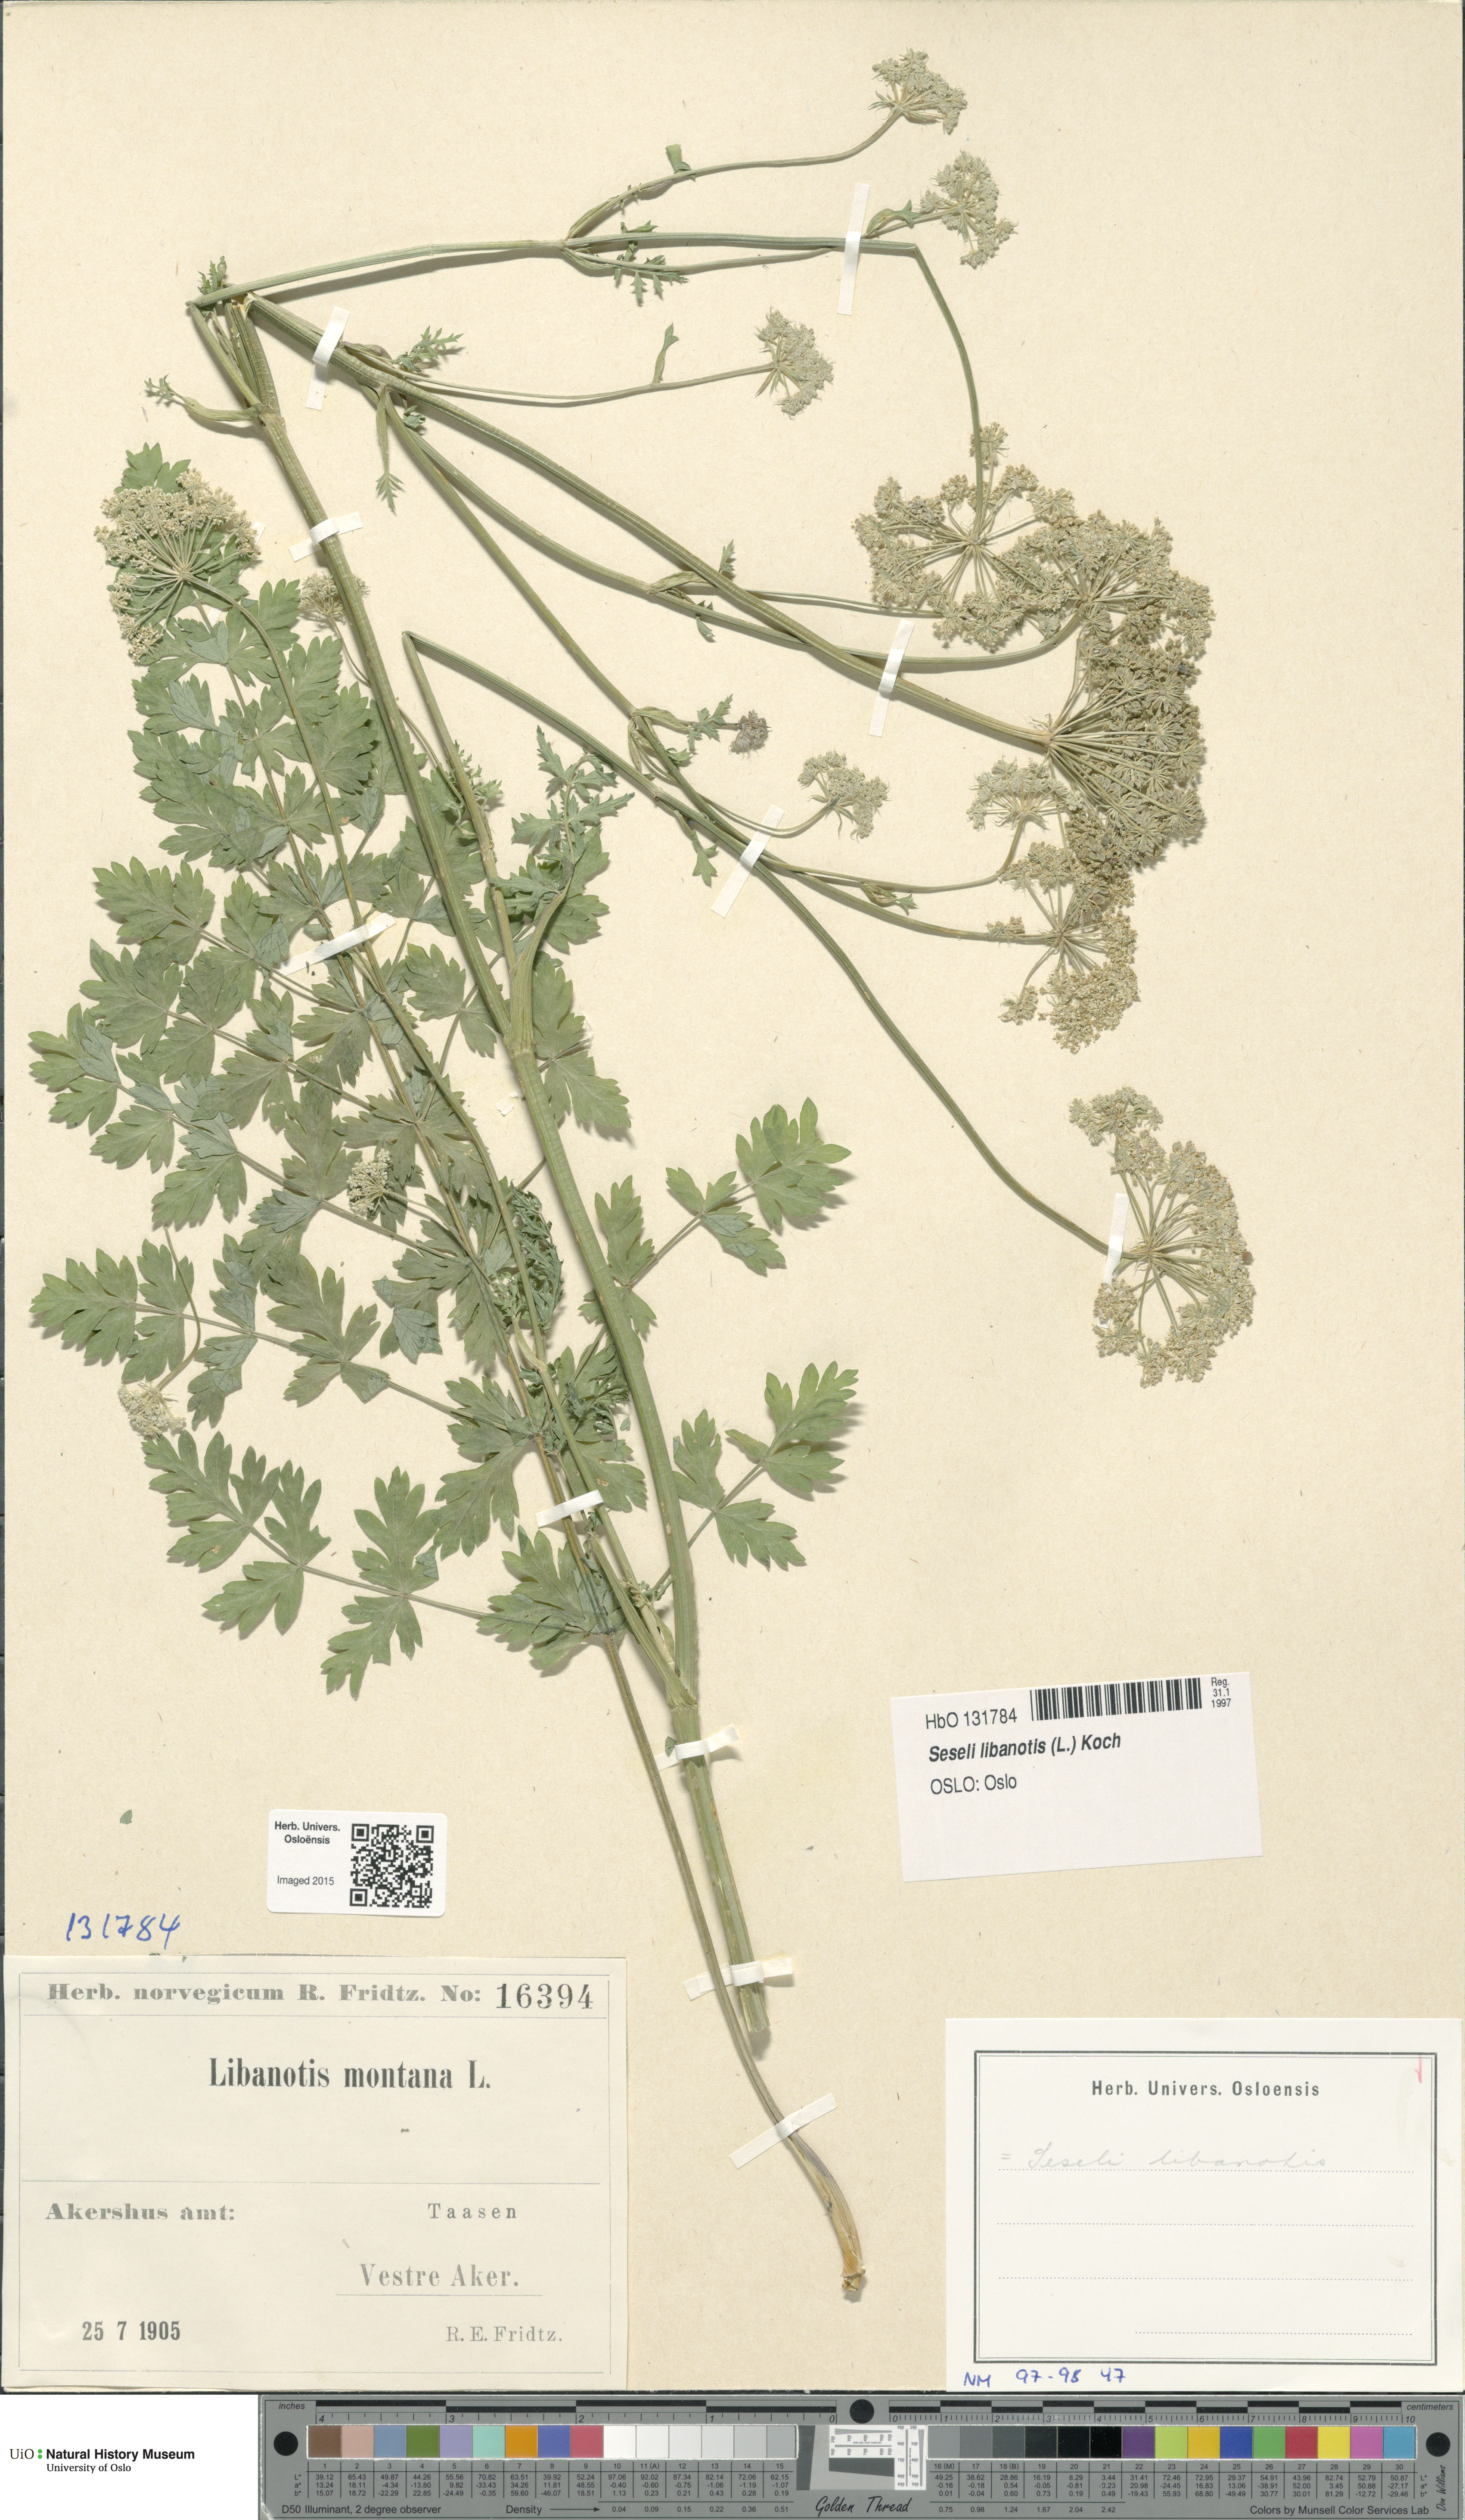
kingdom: Plantae
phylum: Tracheophyta
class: Magnoliopsida
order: Apiales
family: Apiaceae
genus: Seseli
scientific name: Seseli libanotis
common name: Mooncarrot
